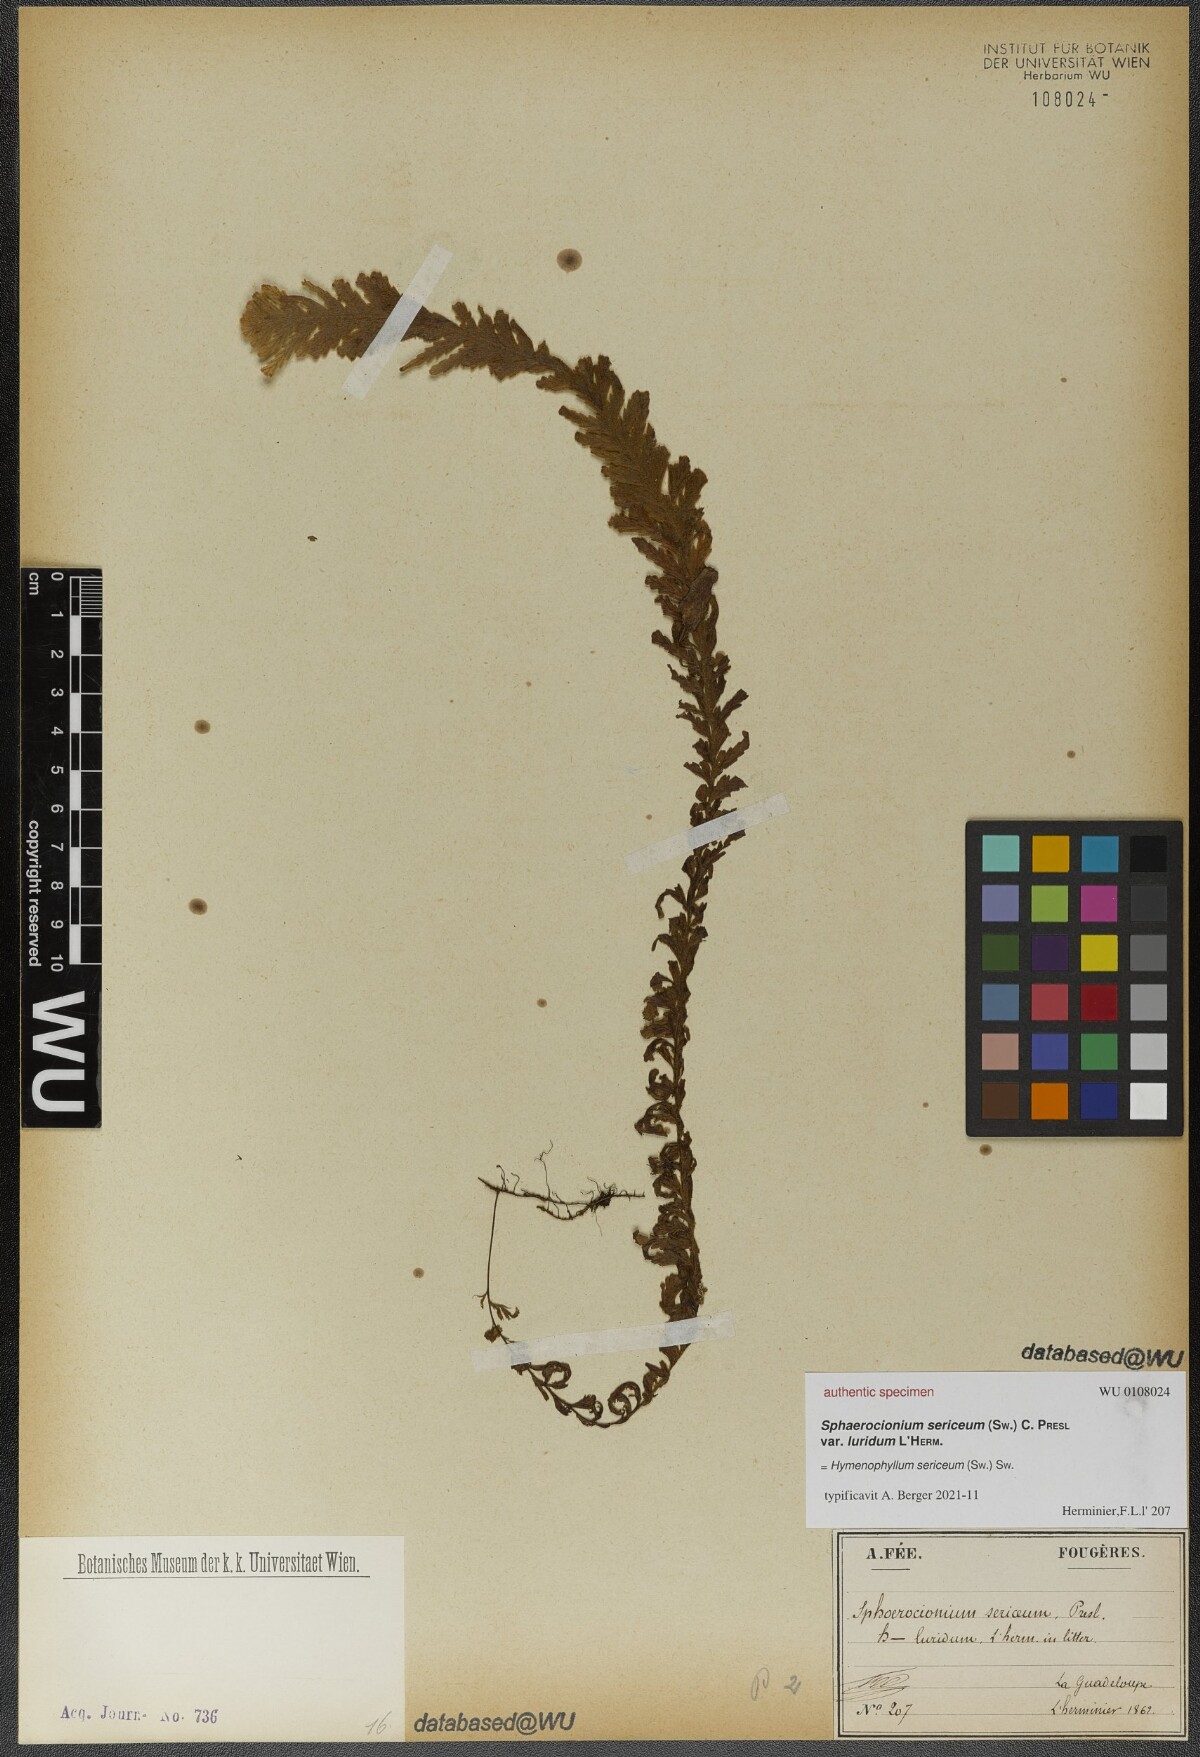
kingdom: Plantae
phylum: Tracheophyta
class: Polypodiopsida
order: Hymenophyllales
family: Hymenophyllaceae
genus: Hymenophyllum
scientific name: Hymenophyllum sericeum
